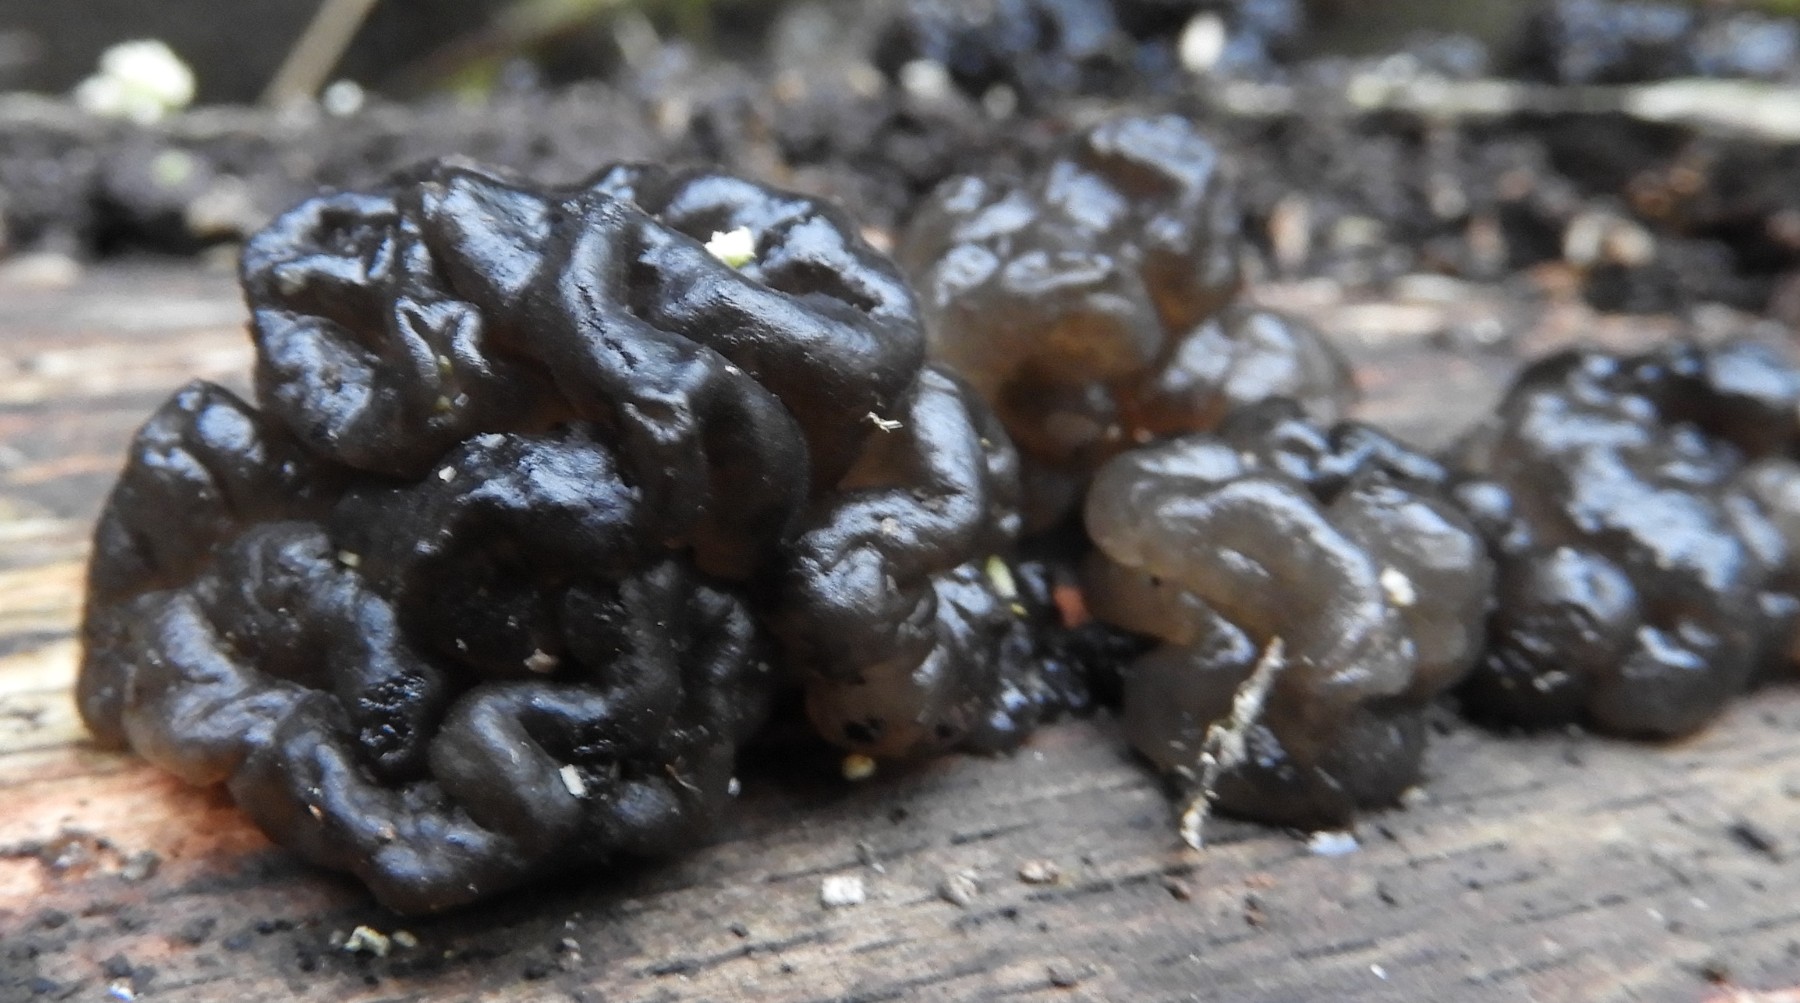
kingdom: Fungi
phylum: Basidiomycota
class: Agaricomycetes
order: Auriculariales
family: Auriculariaceae
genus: Exidia
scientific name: Exidia nigricans
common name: almindelig bævretop
